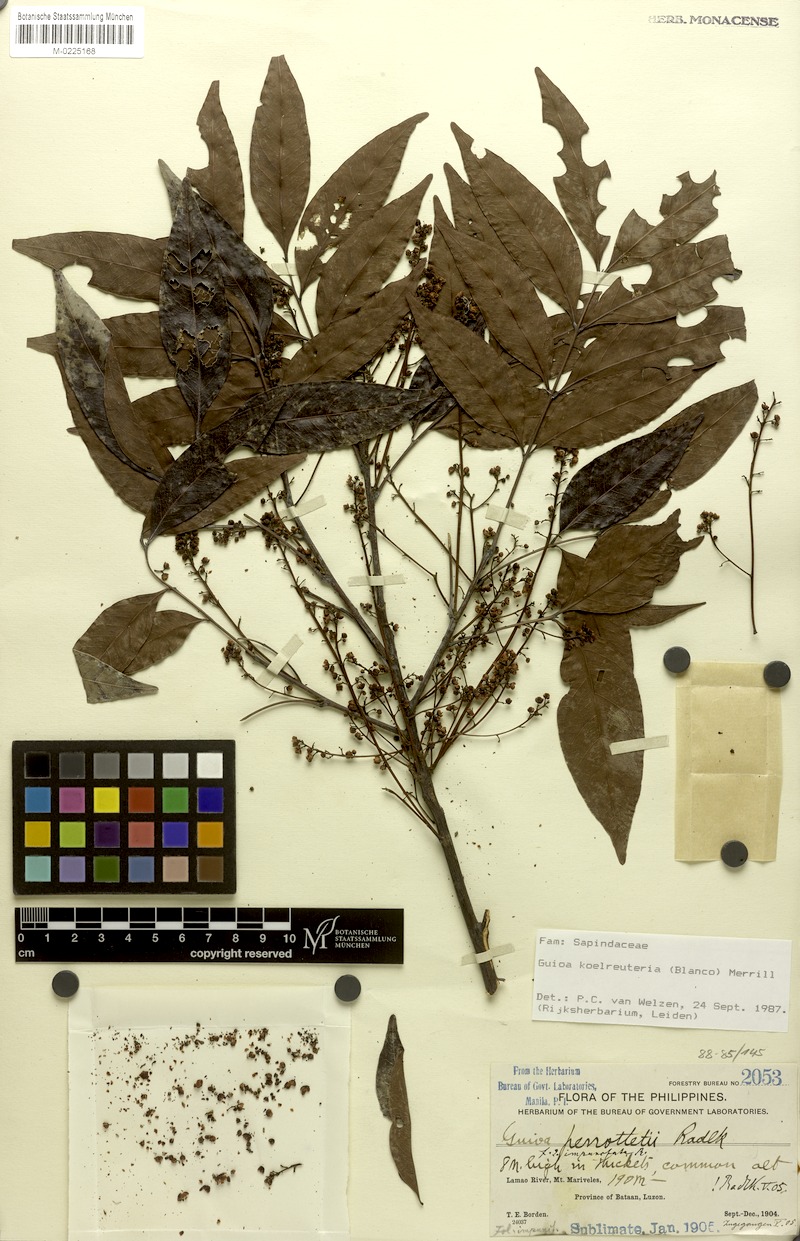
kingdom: Plantae
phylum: Tracheophyta
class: Magnoliopsida
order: Sapindales
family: Sapindaceae
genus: Guioa
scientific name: Guioa koelreuteria
